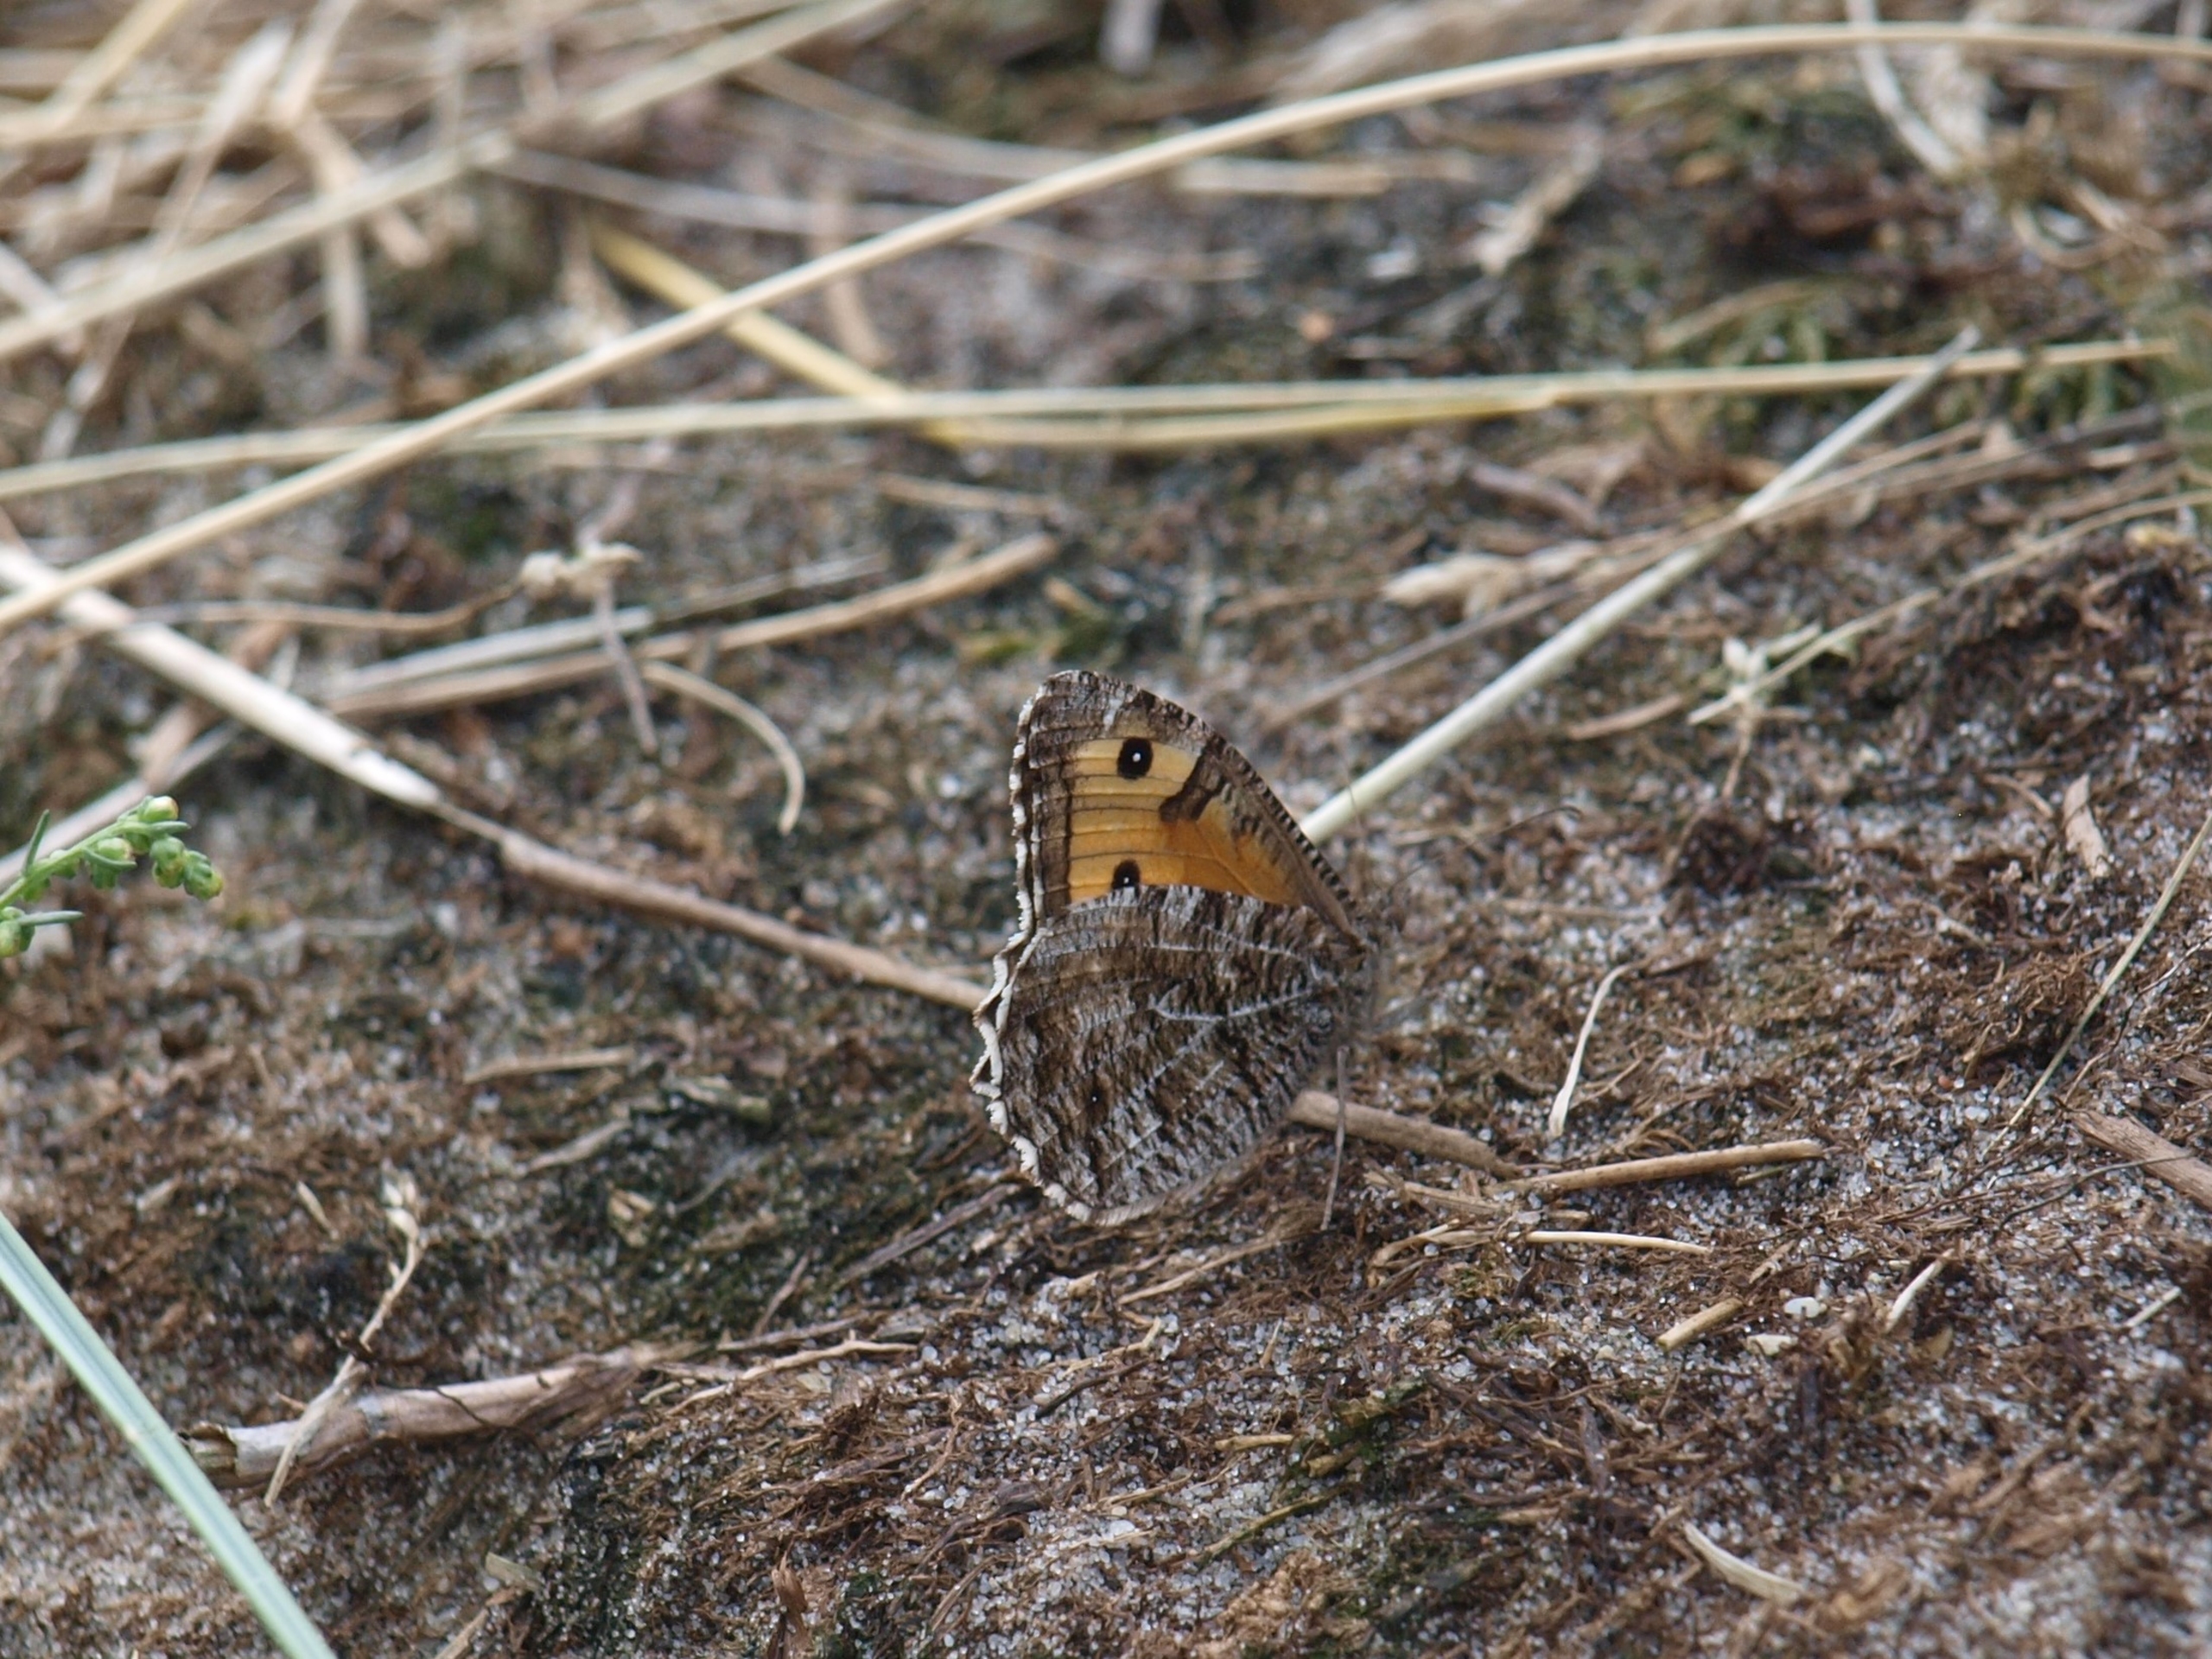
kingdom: Animalia
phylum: Arthropoda
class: Insecta
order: Lepidoptera
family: Nymphalidae
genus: Hipparchia
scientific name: Hipparchia semele
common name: Sandrandøje
